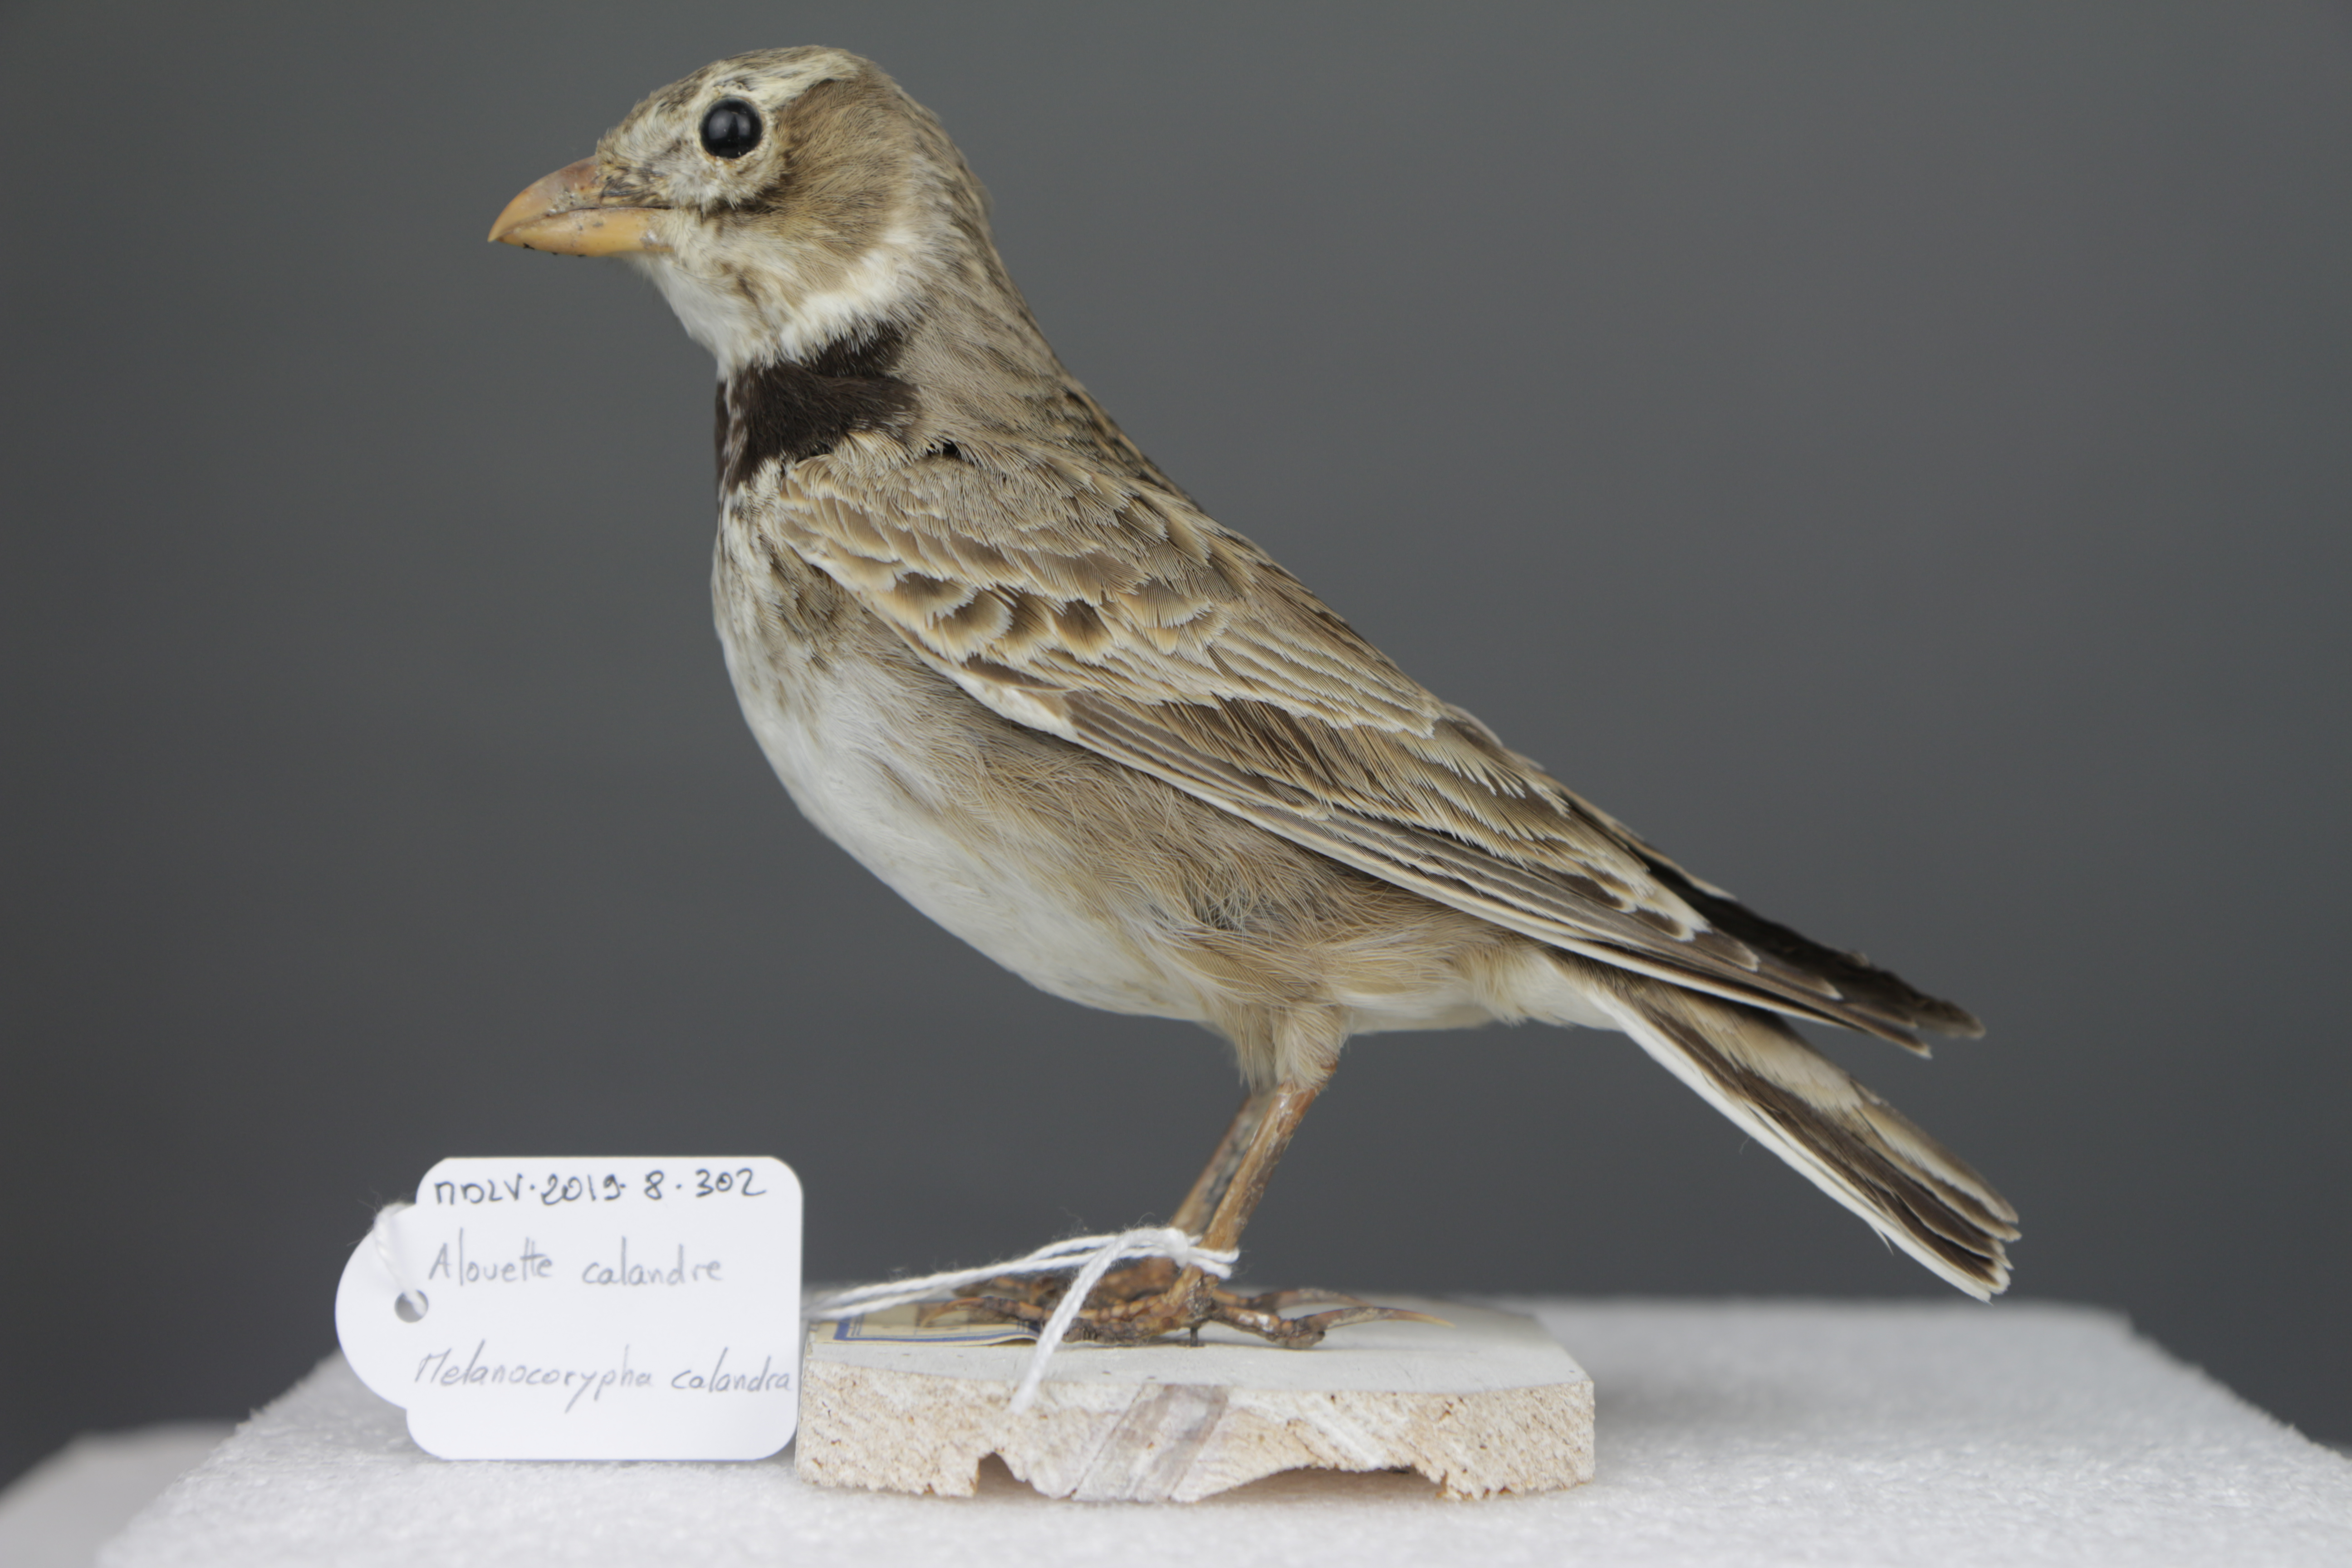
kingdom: Animalia
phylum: Chordata
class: Aves
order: Passeriformes
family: Alaudidae
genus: Melanocorypha
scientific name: Melanocorypha calandra
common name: Calandra lark
